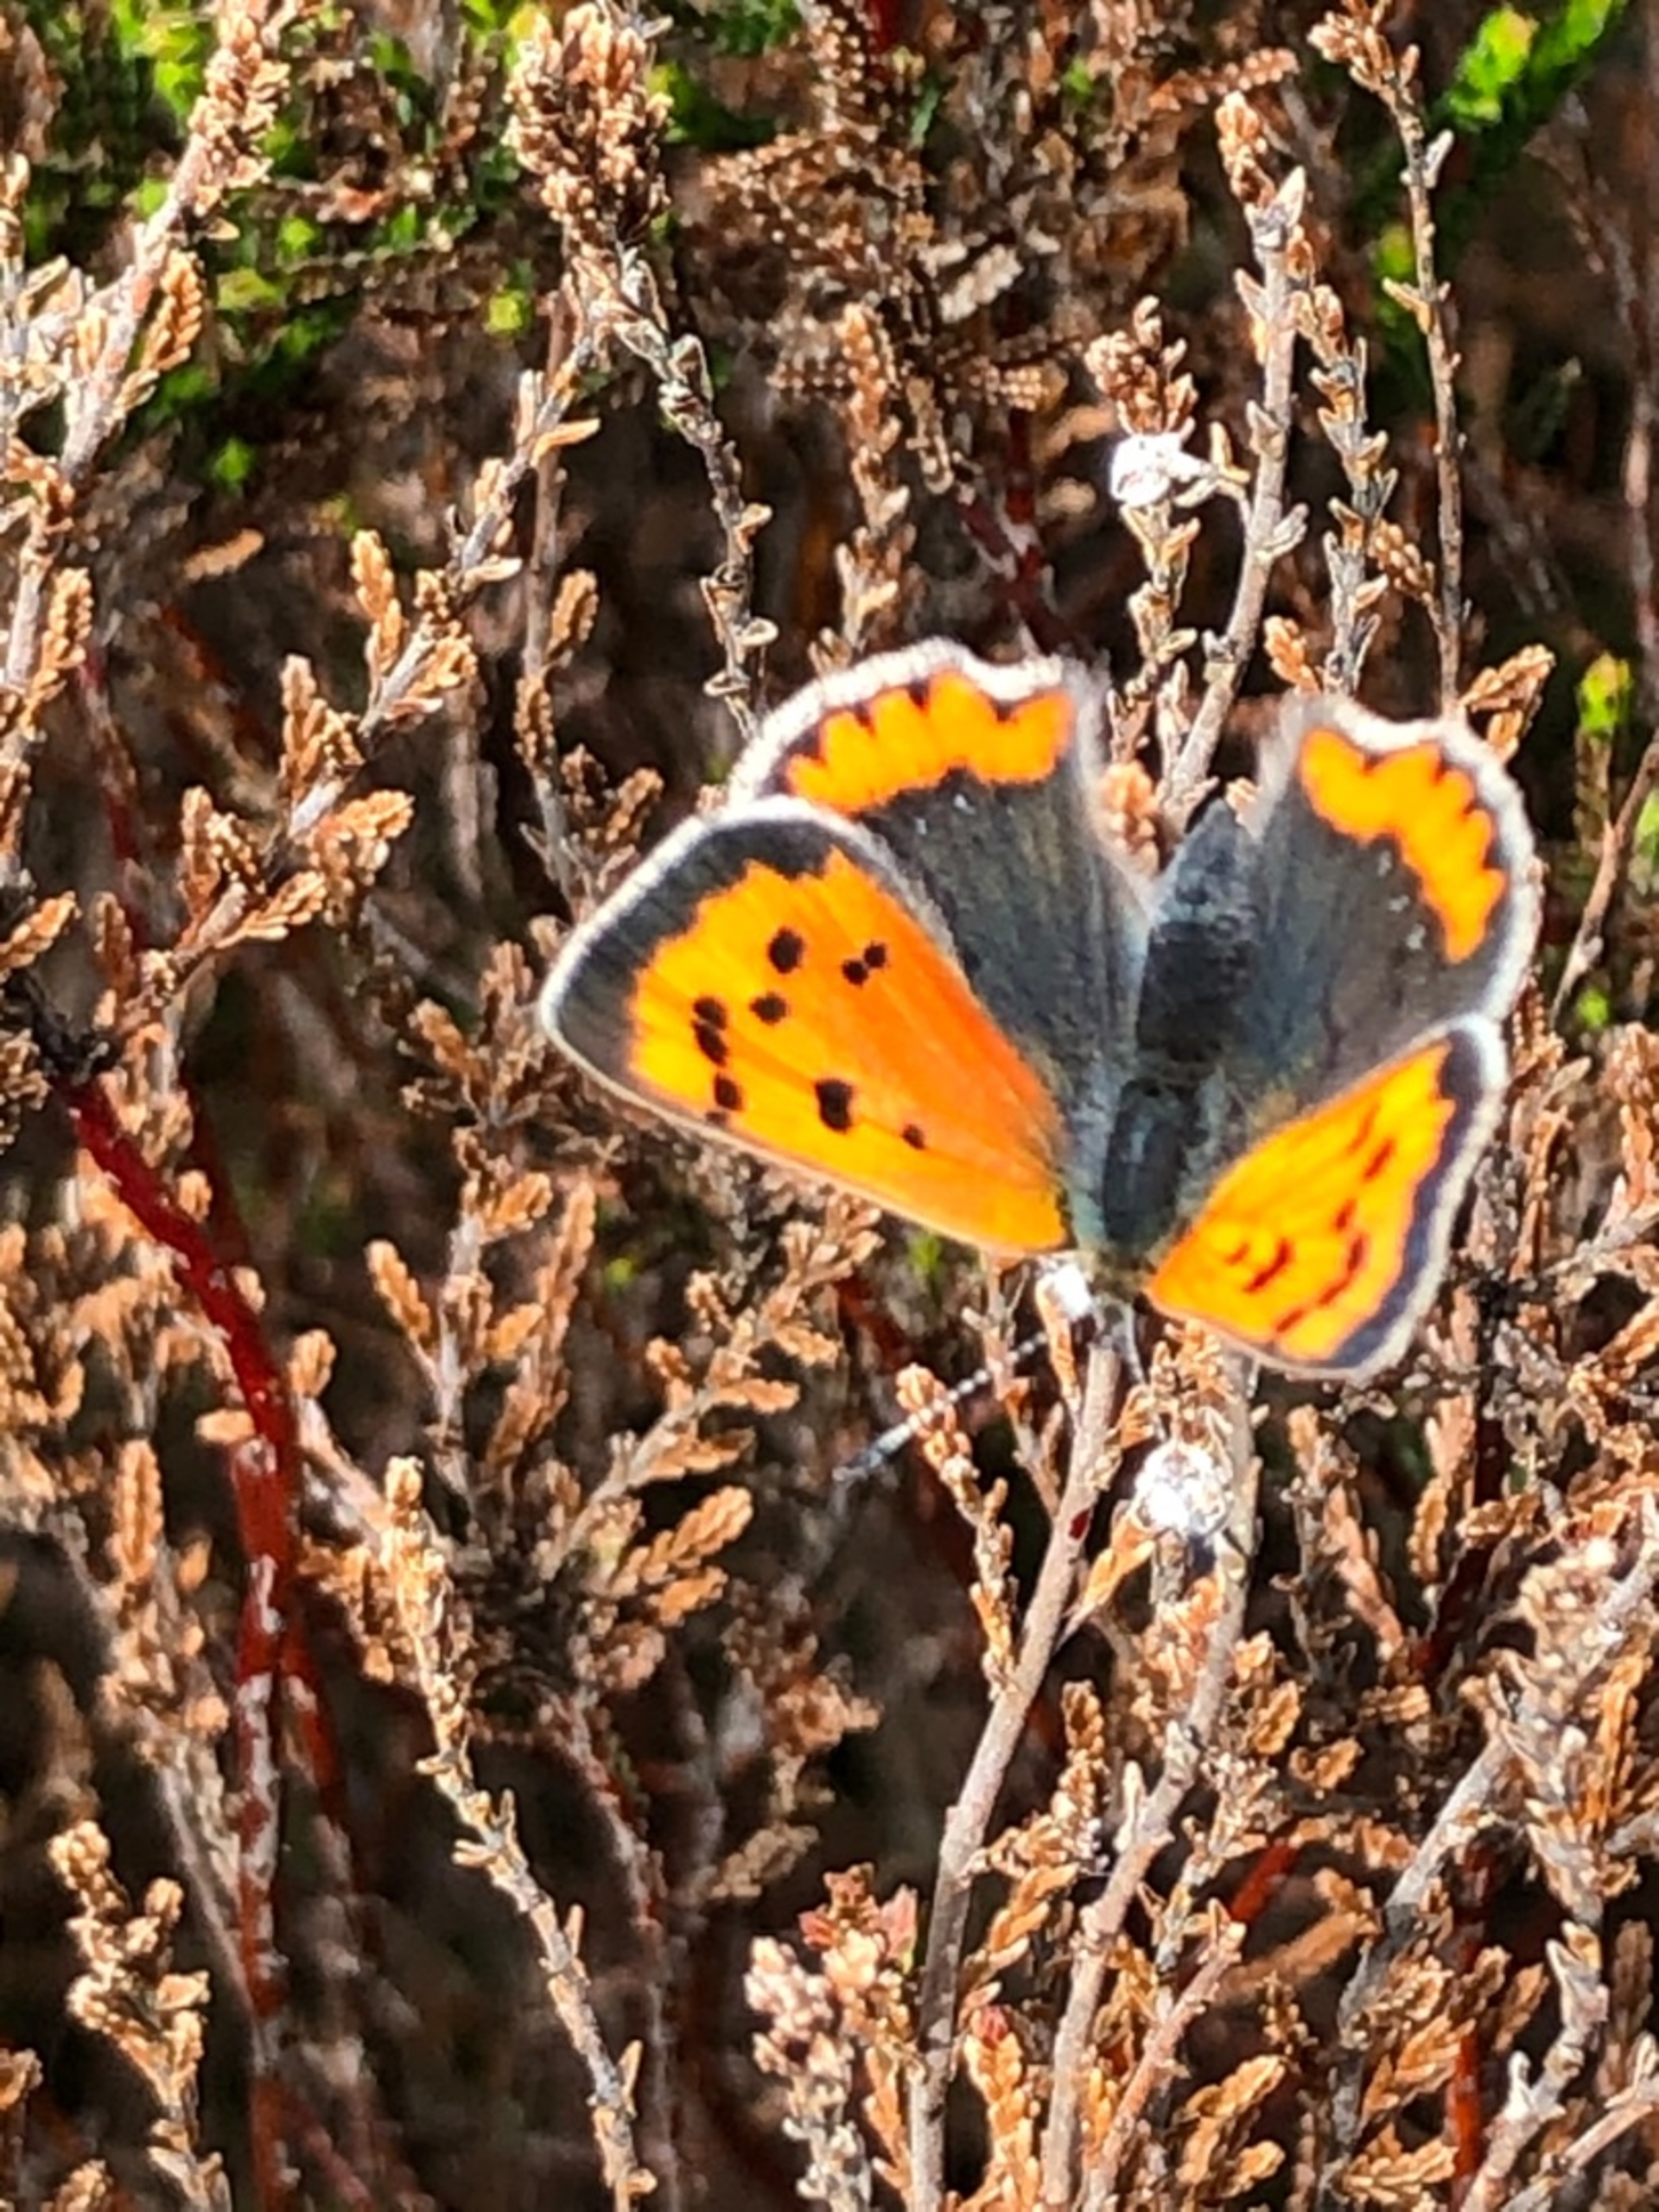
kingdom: Animalia
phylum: Arthropoda
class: Insecta
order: Lepidoptera
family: Lycaenidae
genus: Lycaena
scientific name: Lycaena phlaeas
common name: Lille ildfugl
